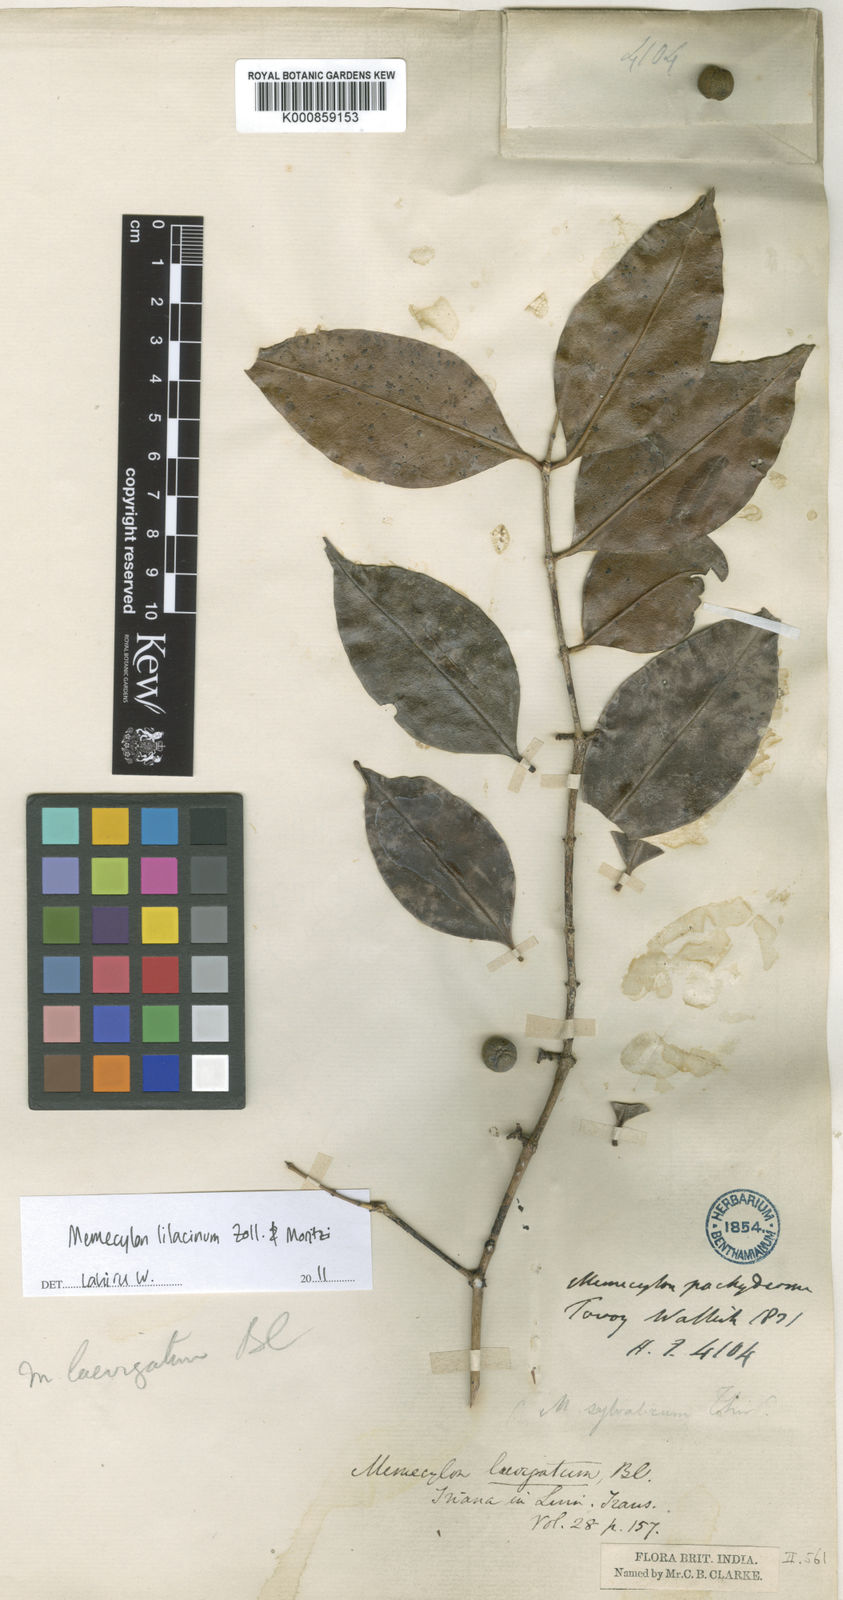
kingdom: Plantae
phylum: Tracheophyta
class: Magnoliopsida
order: Myrtales
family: Melastomataceae
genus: Memecylon
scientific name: Memecylon lilacinum
